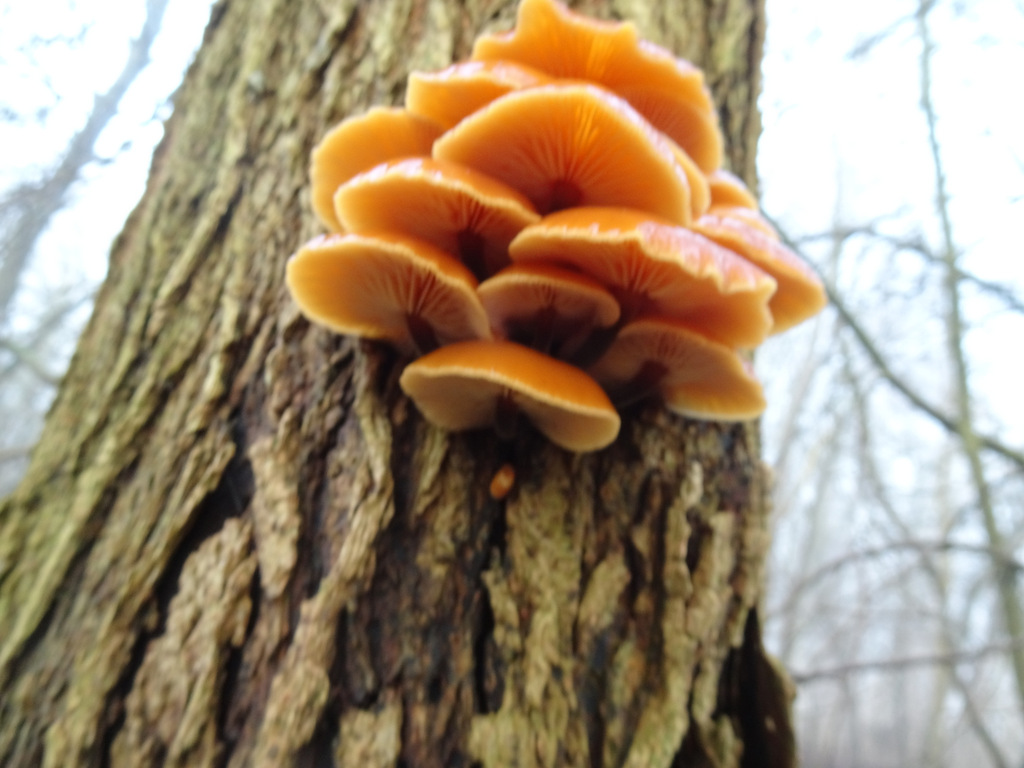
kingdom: Fungi
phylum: Basidiomycota
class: Agaricomycetes
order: Agaricales
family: Physalacriaceae
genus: Flammulina
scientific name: Flammulina
